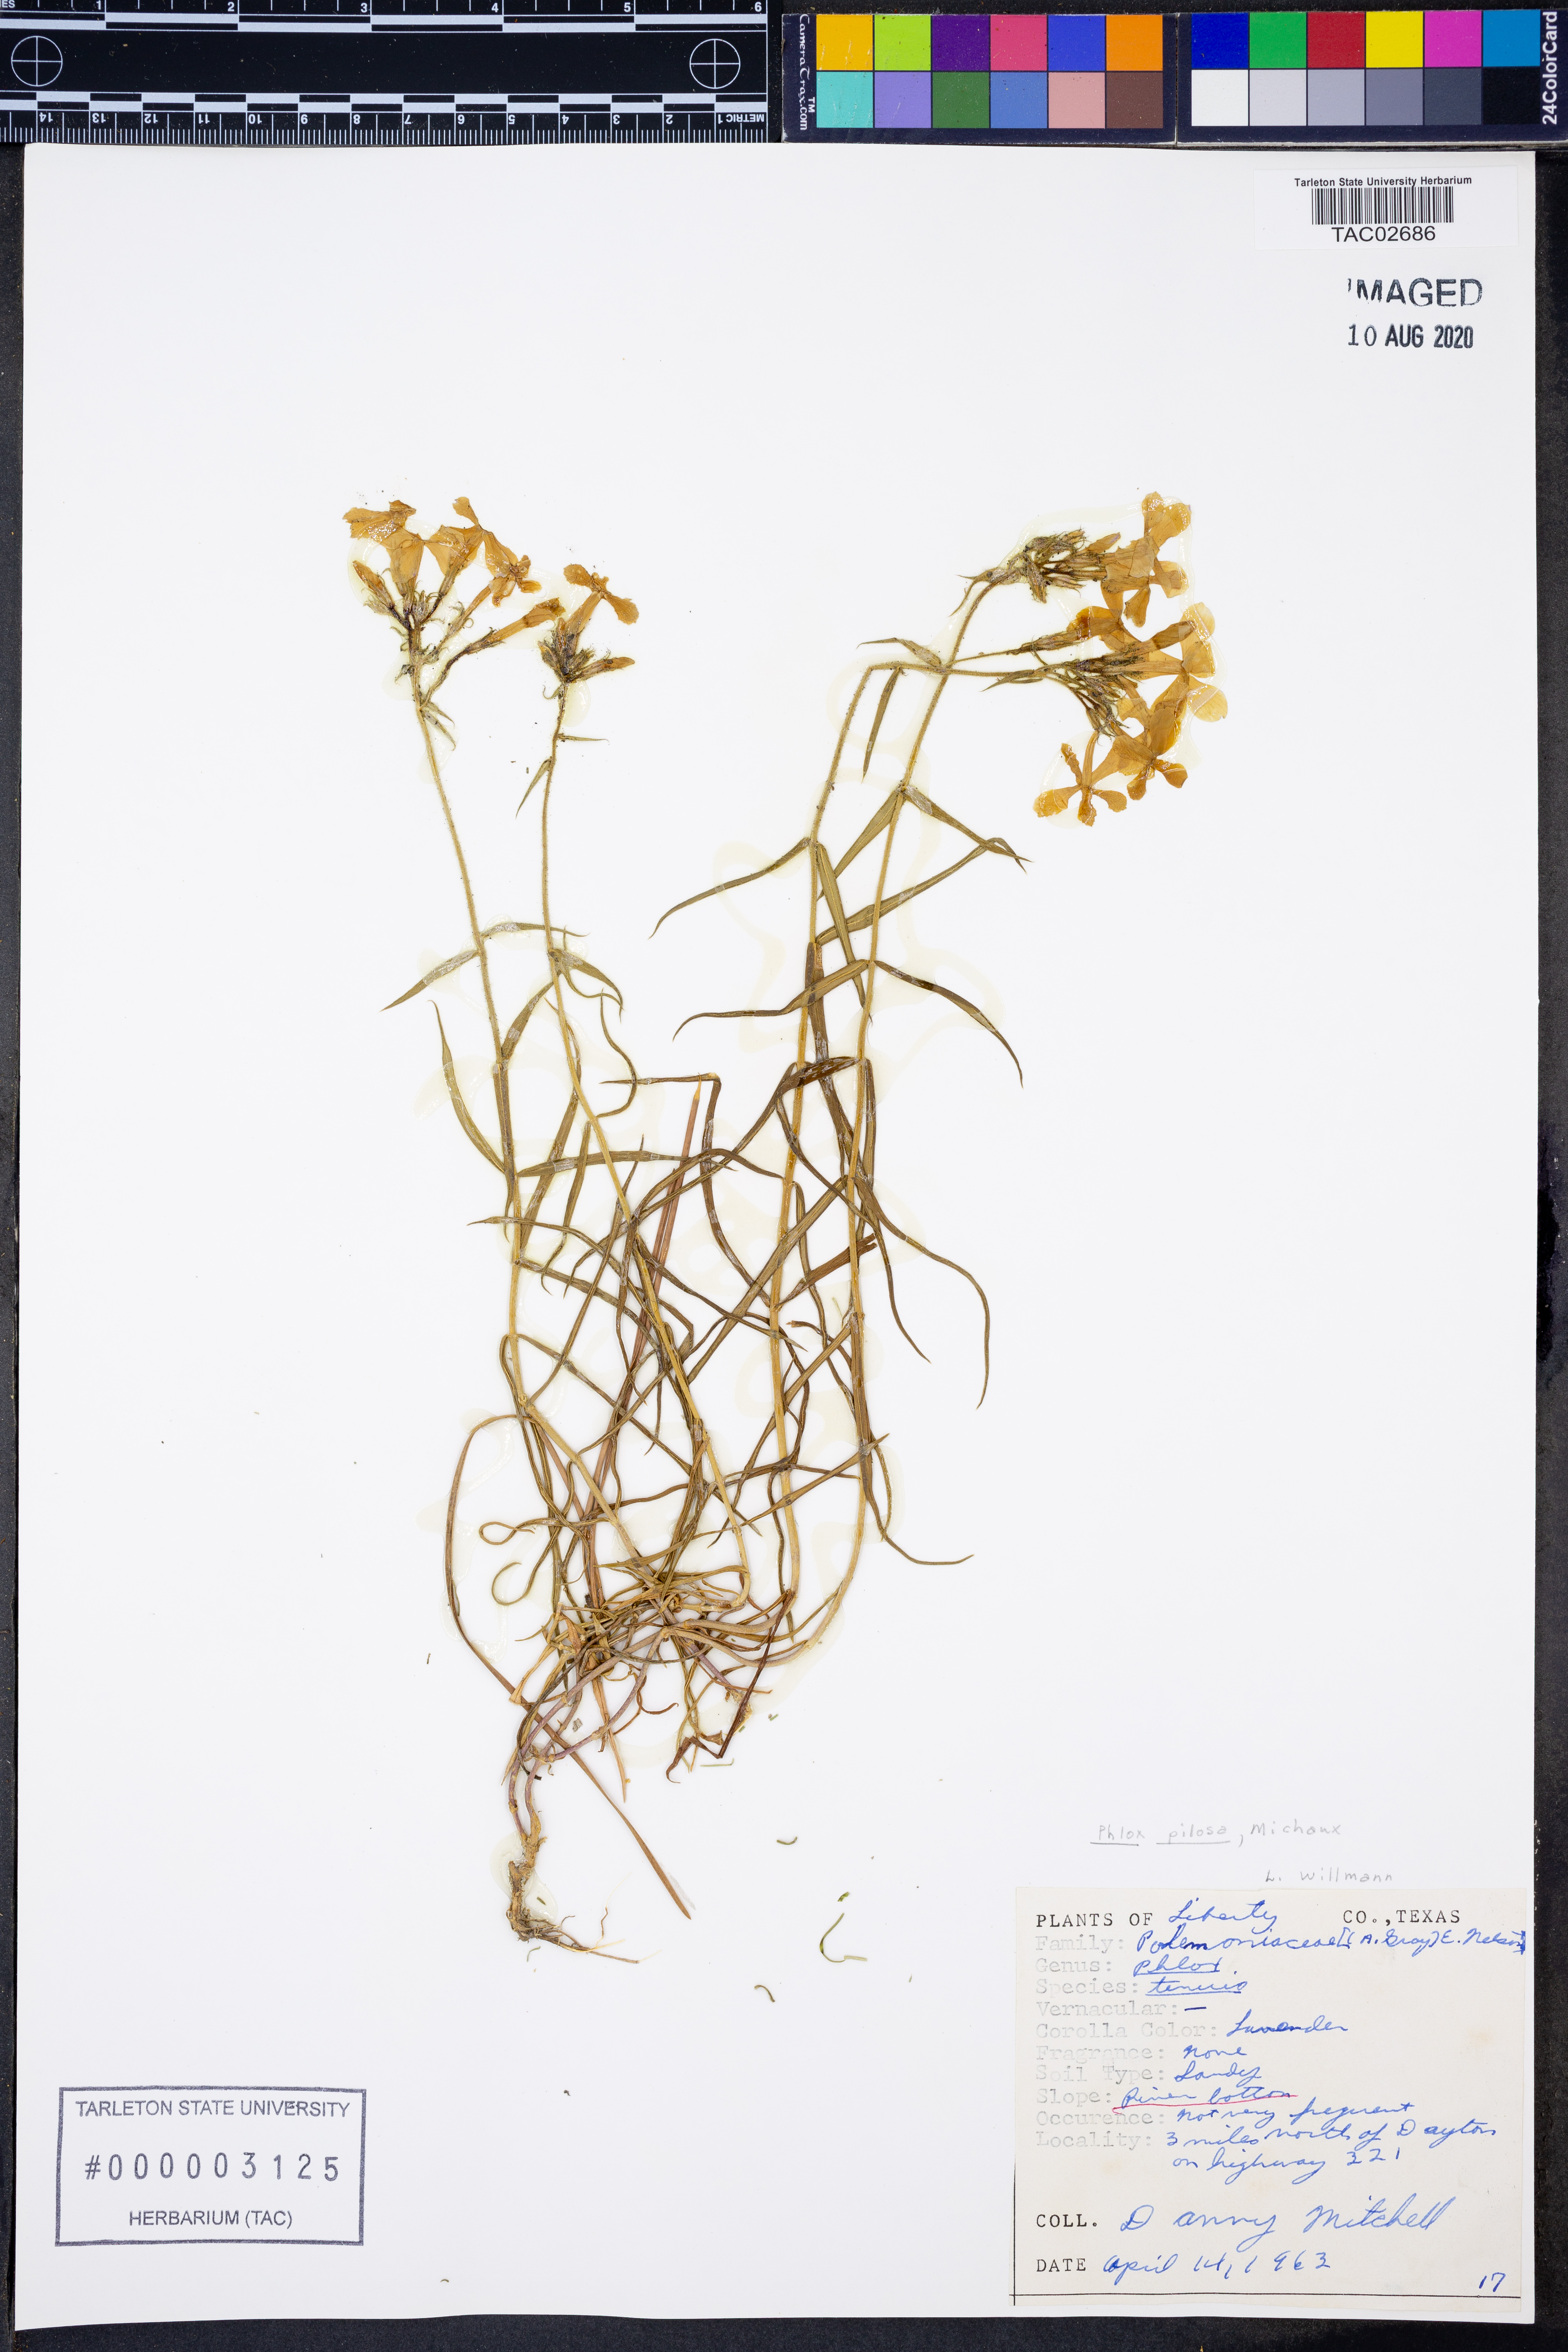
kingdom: Plantae
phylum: Tracheophyta
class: Magnoliopsida
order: Ericales
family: Polemoniaceae
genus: Phlox
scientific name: Phlox pilosa
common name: Prairie phlox
